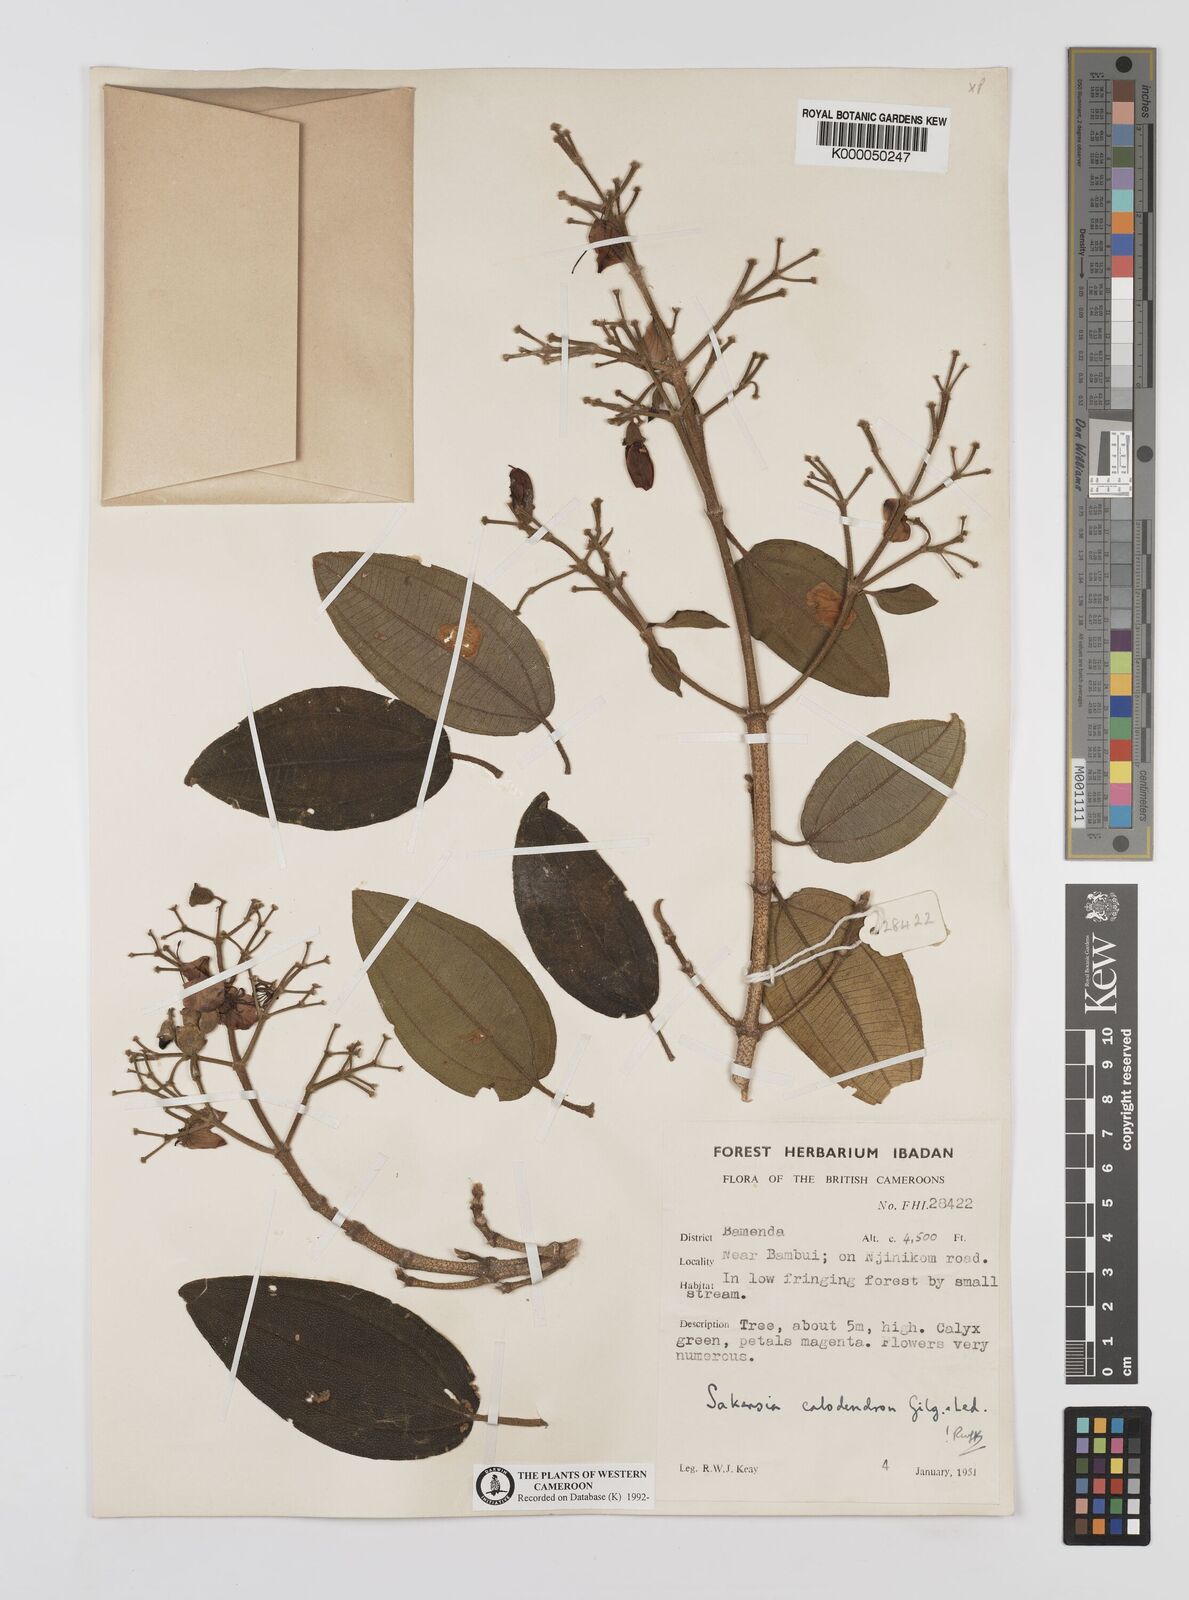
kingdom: Plantae
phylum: Tracheophyta
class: Magnoliopsida
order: Myrtales
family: Melastomataceae
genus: Dichaetanthera
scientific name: Dichaetanthera
